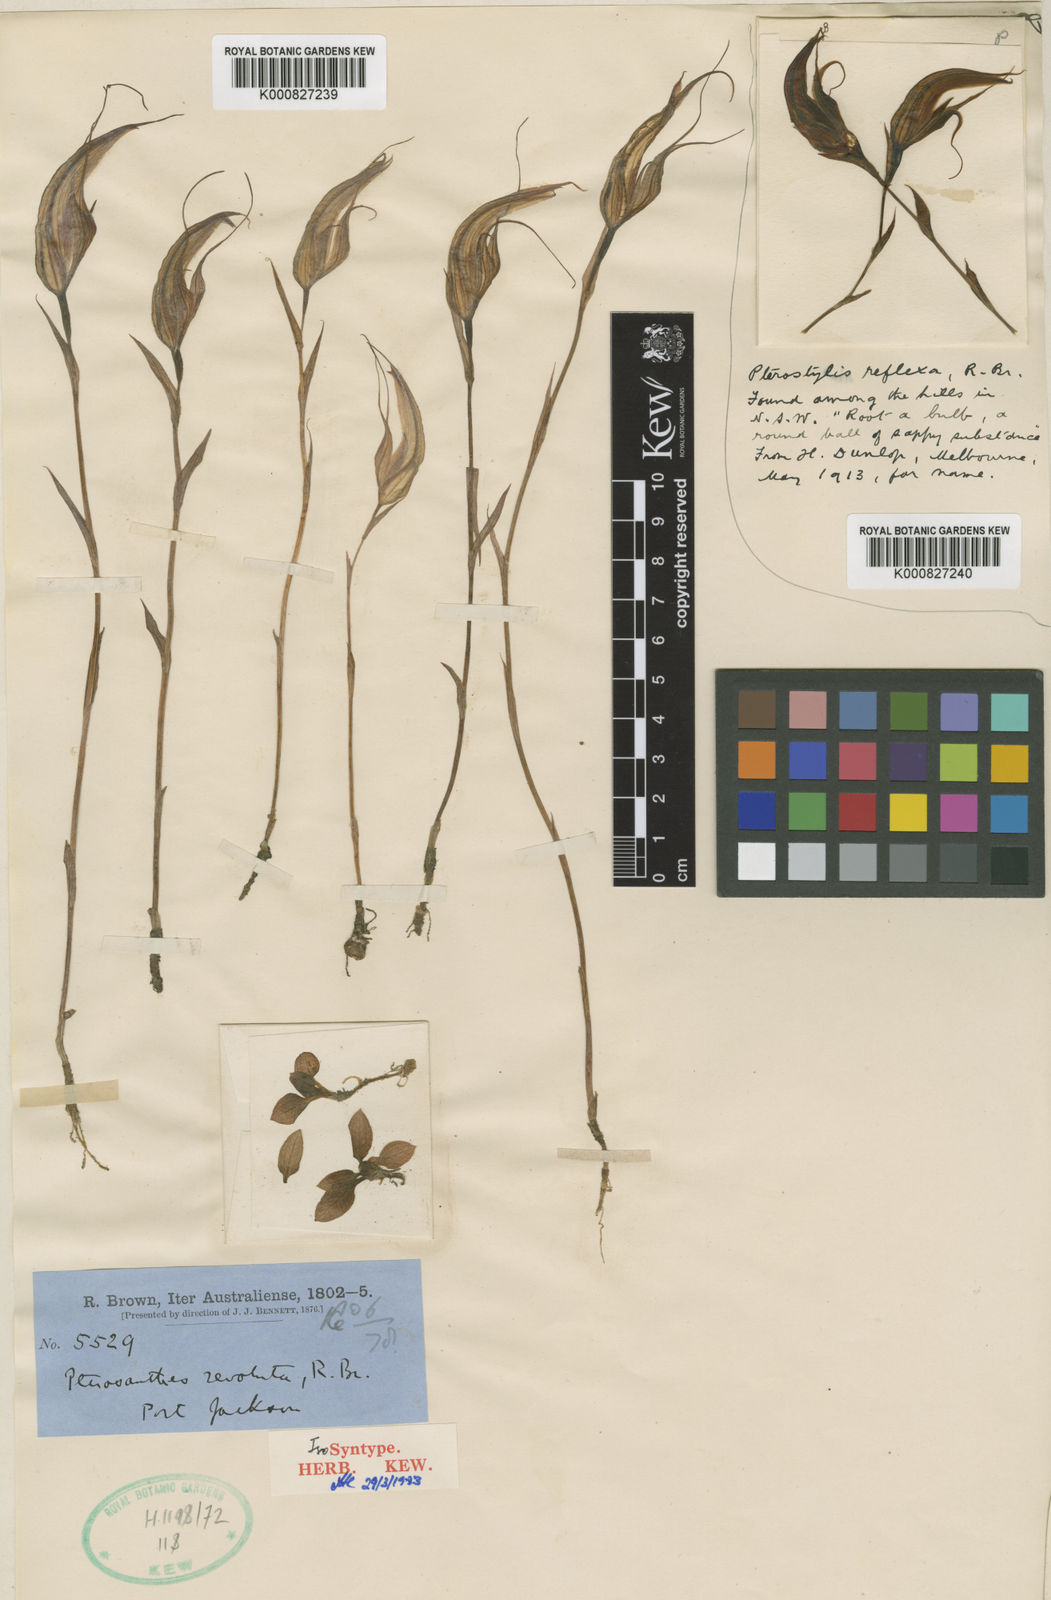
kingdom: Plantae
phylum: Tracheophyta
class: Liliopsida
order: Asparagales
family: Orchidaceae
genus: Pterostylis
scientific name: Pterostylis revoluta
